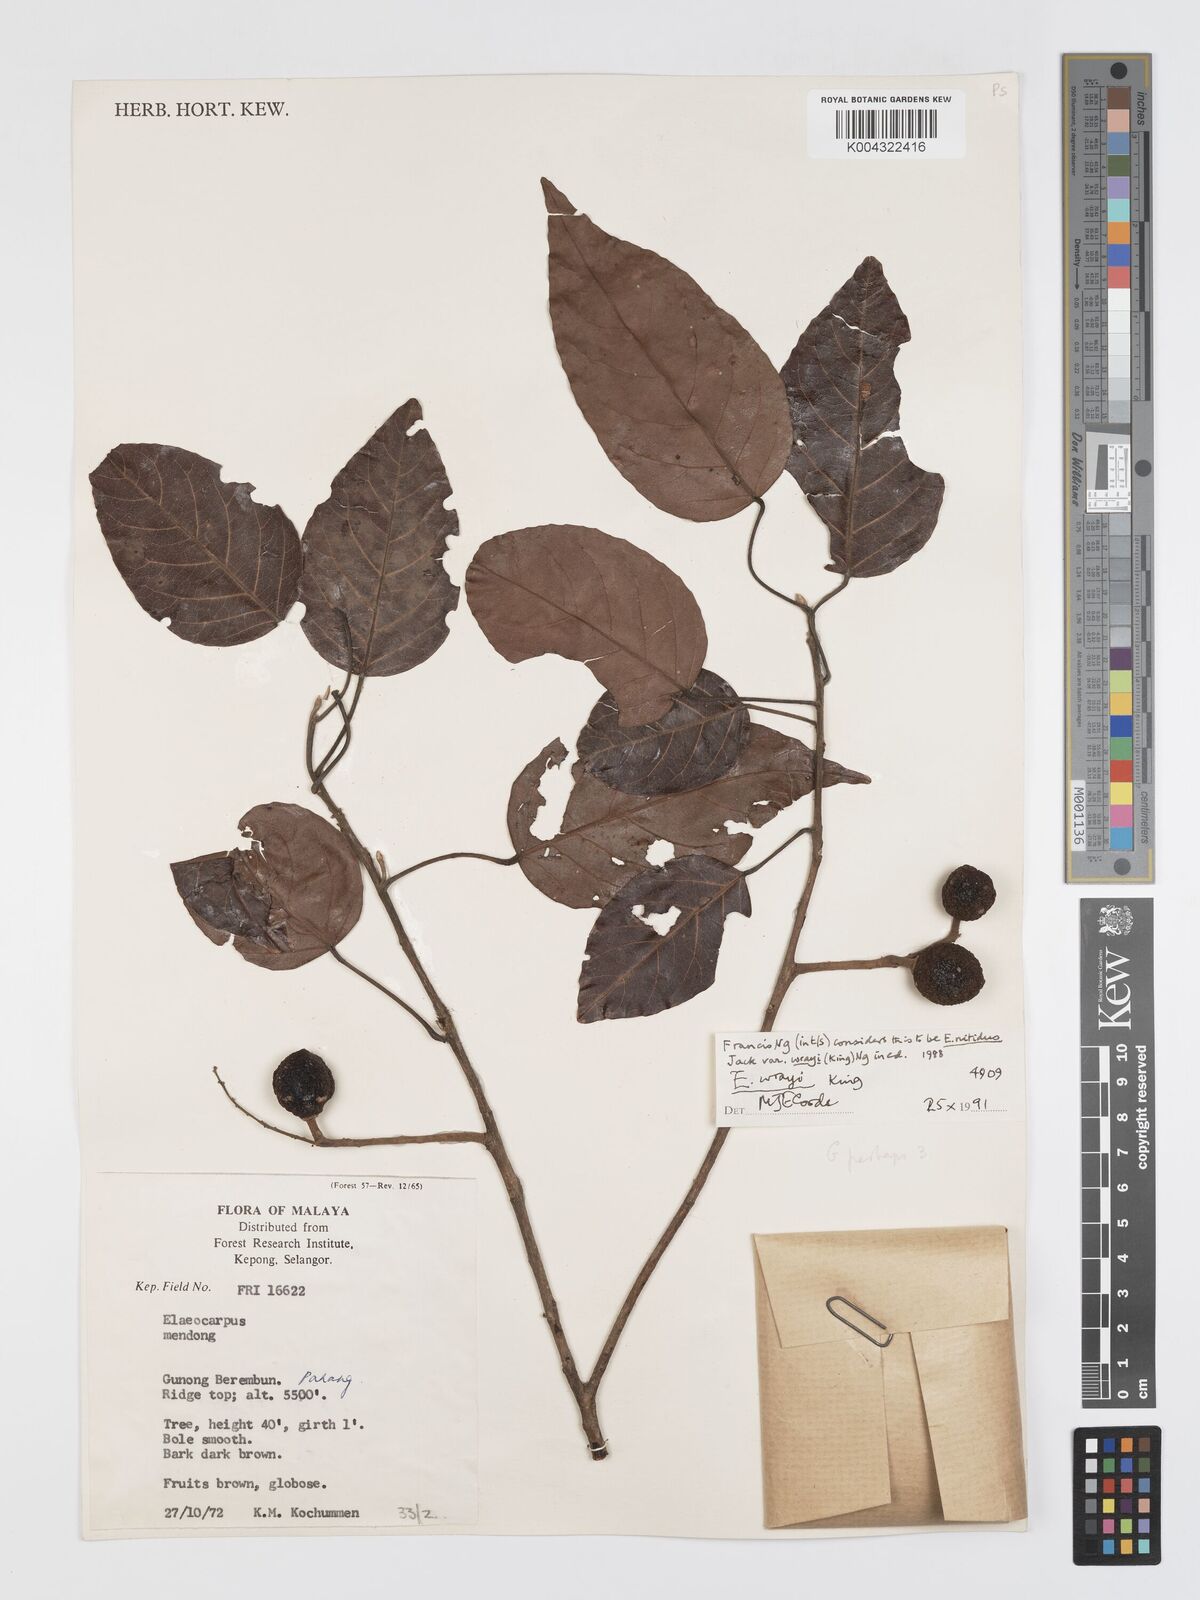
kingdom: Plantae
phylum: Tracheophyta
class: Magnoliopsida
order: Oxalidales
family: Elaeocarpaceae
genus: Elaeocarpus
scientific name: Elaeocarpus nitidus
